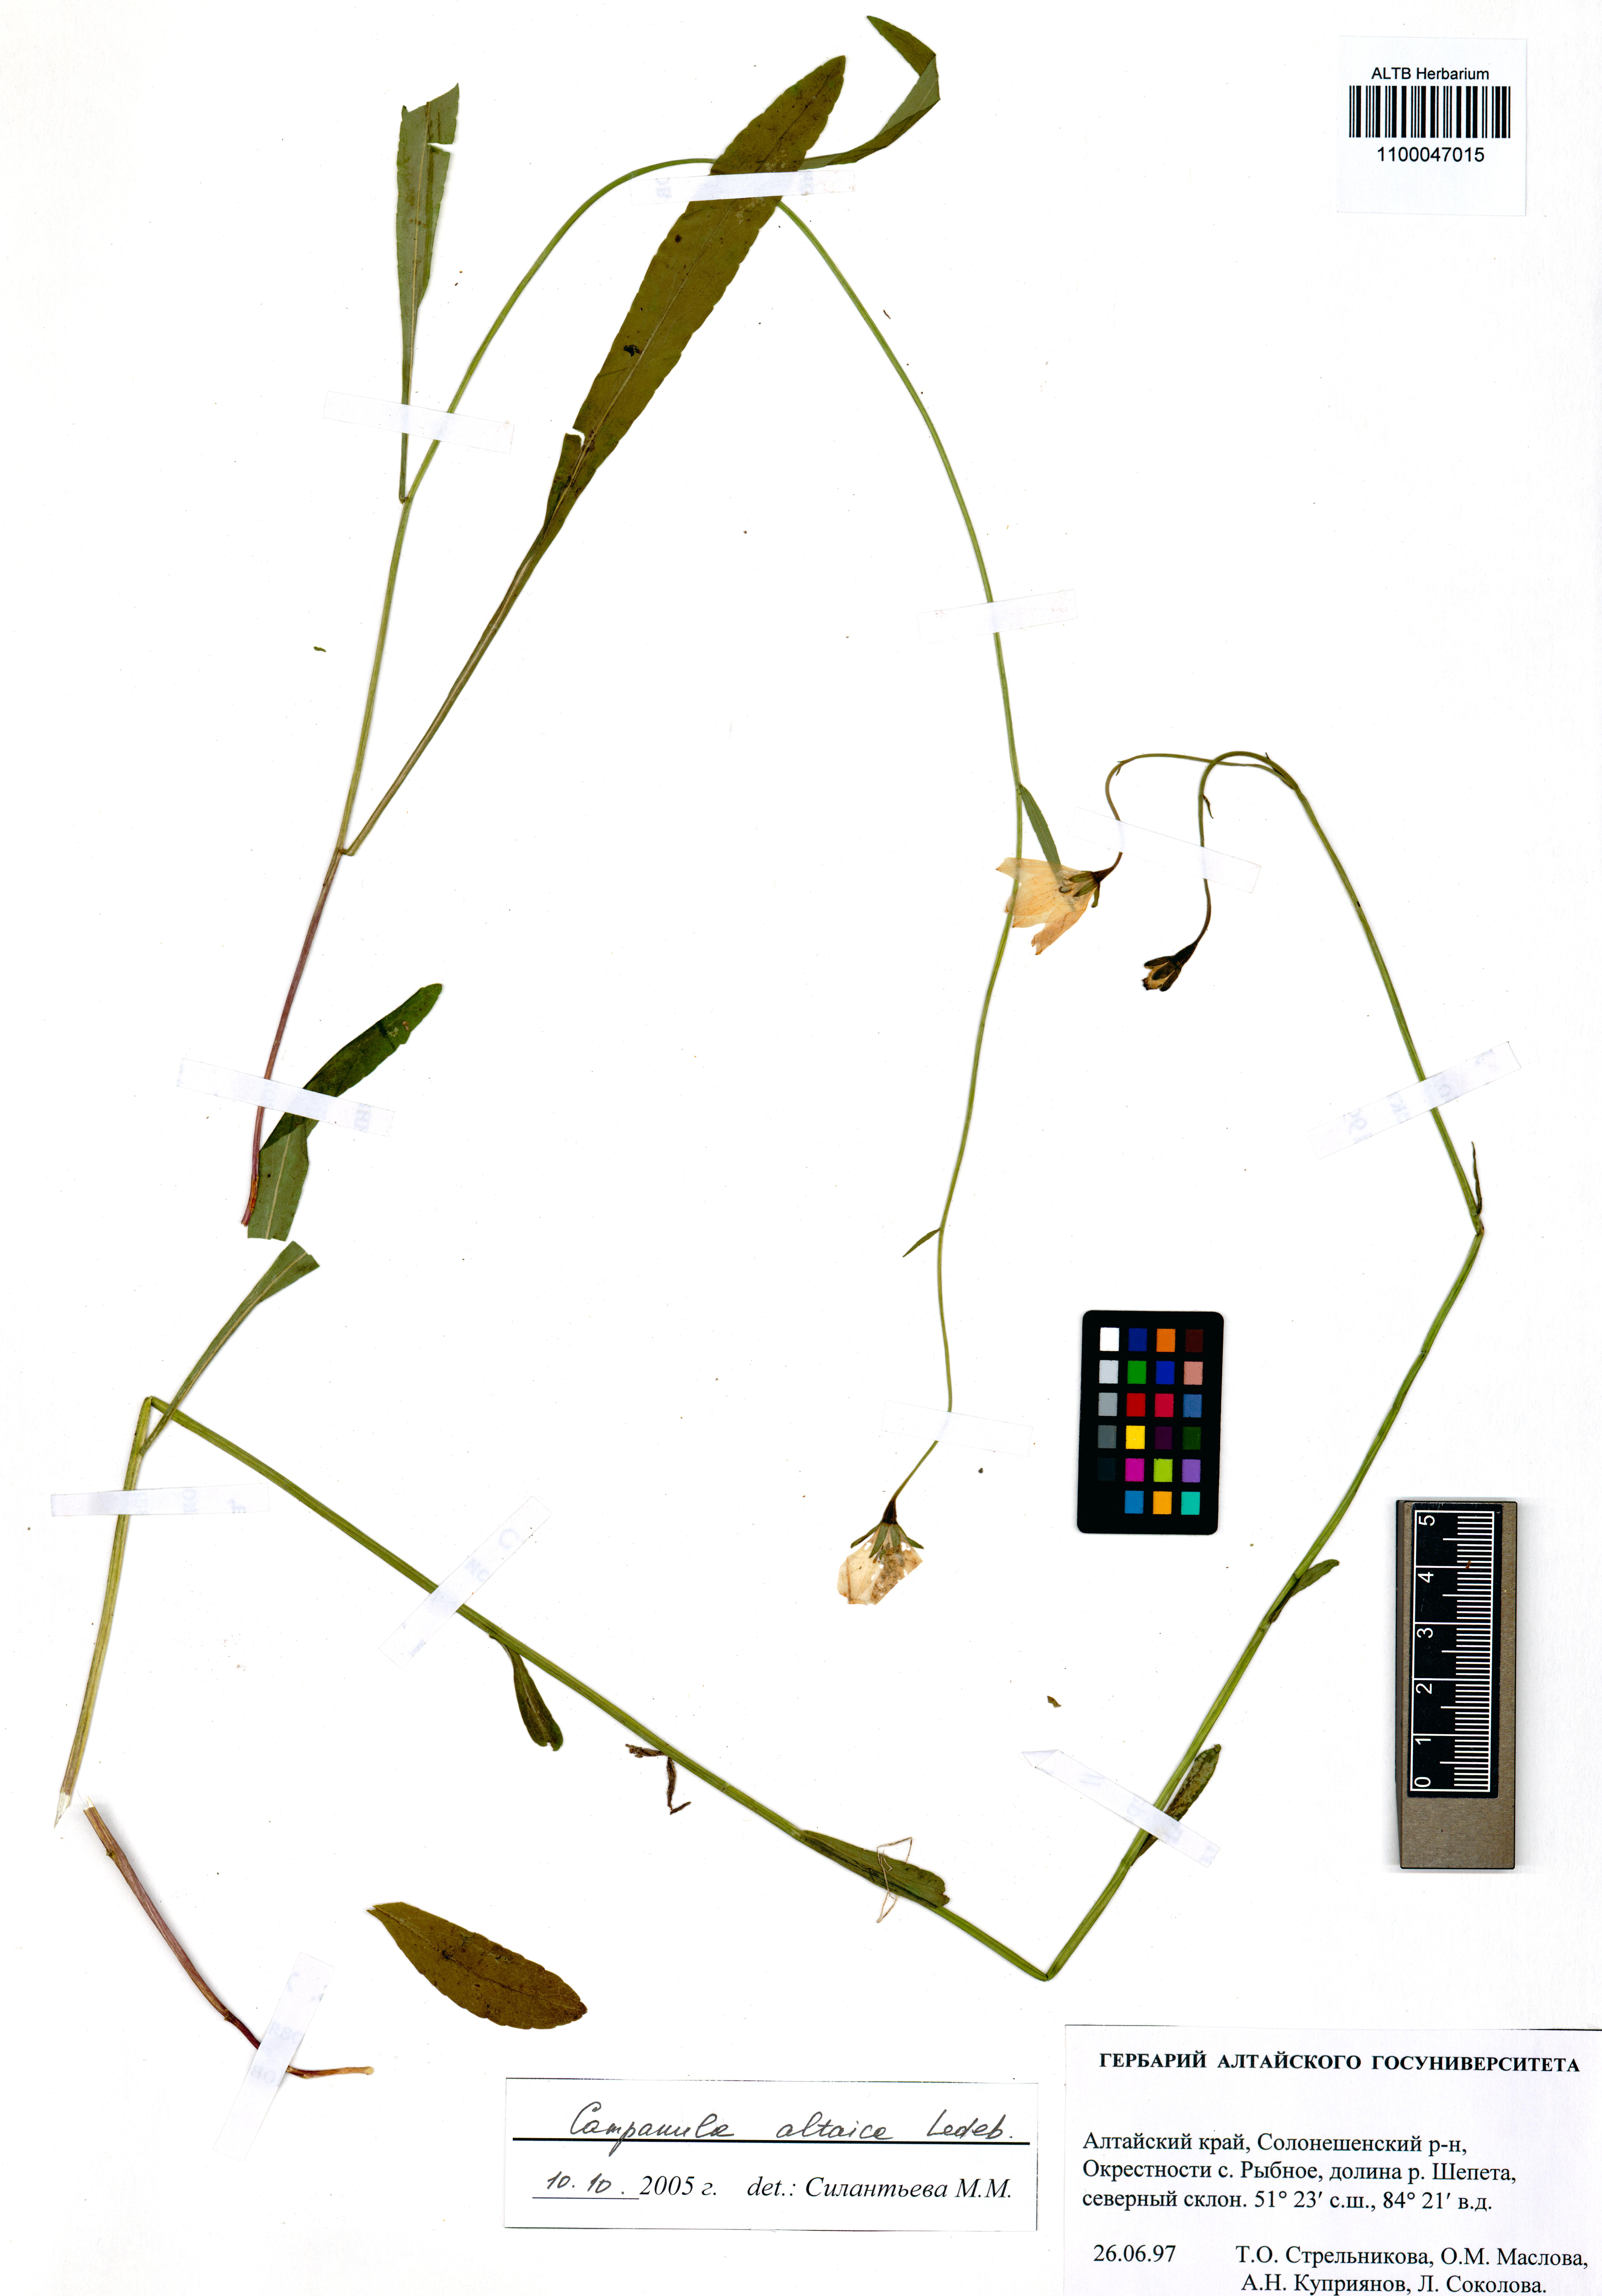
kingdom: Plantae
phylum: Tracheophyta
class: Magnoliopsida
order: Asterales
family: Campanulaceae
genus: Campanula
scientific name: Campanula stevenii
